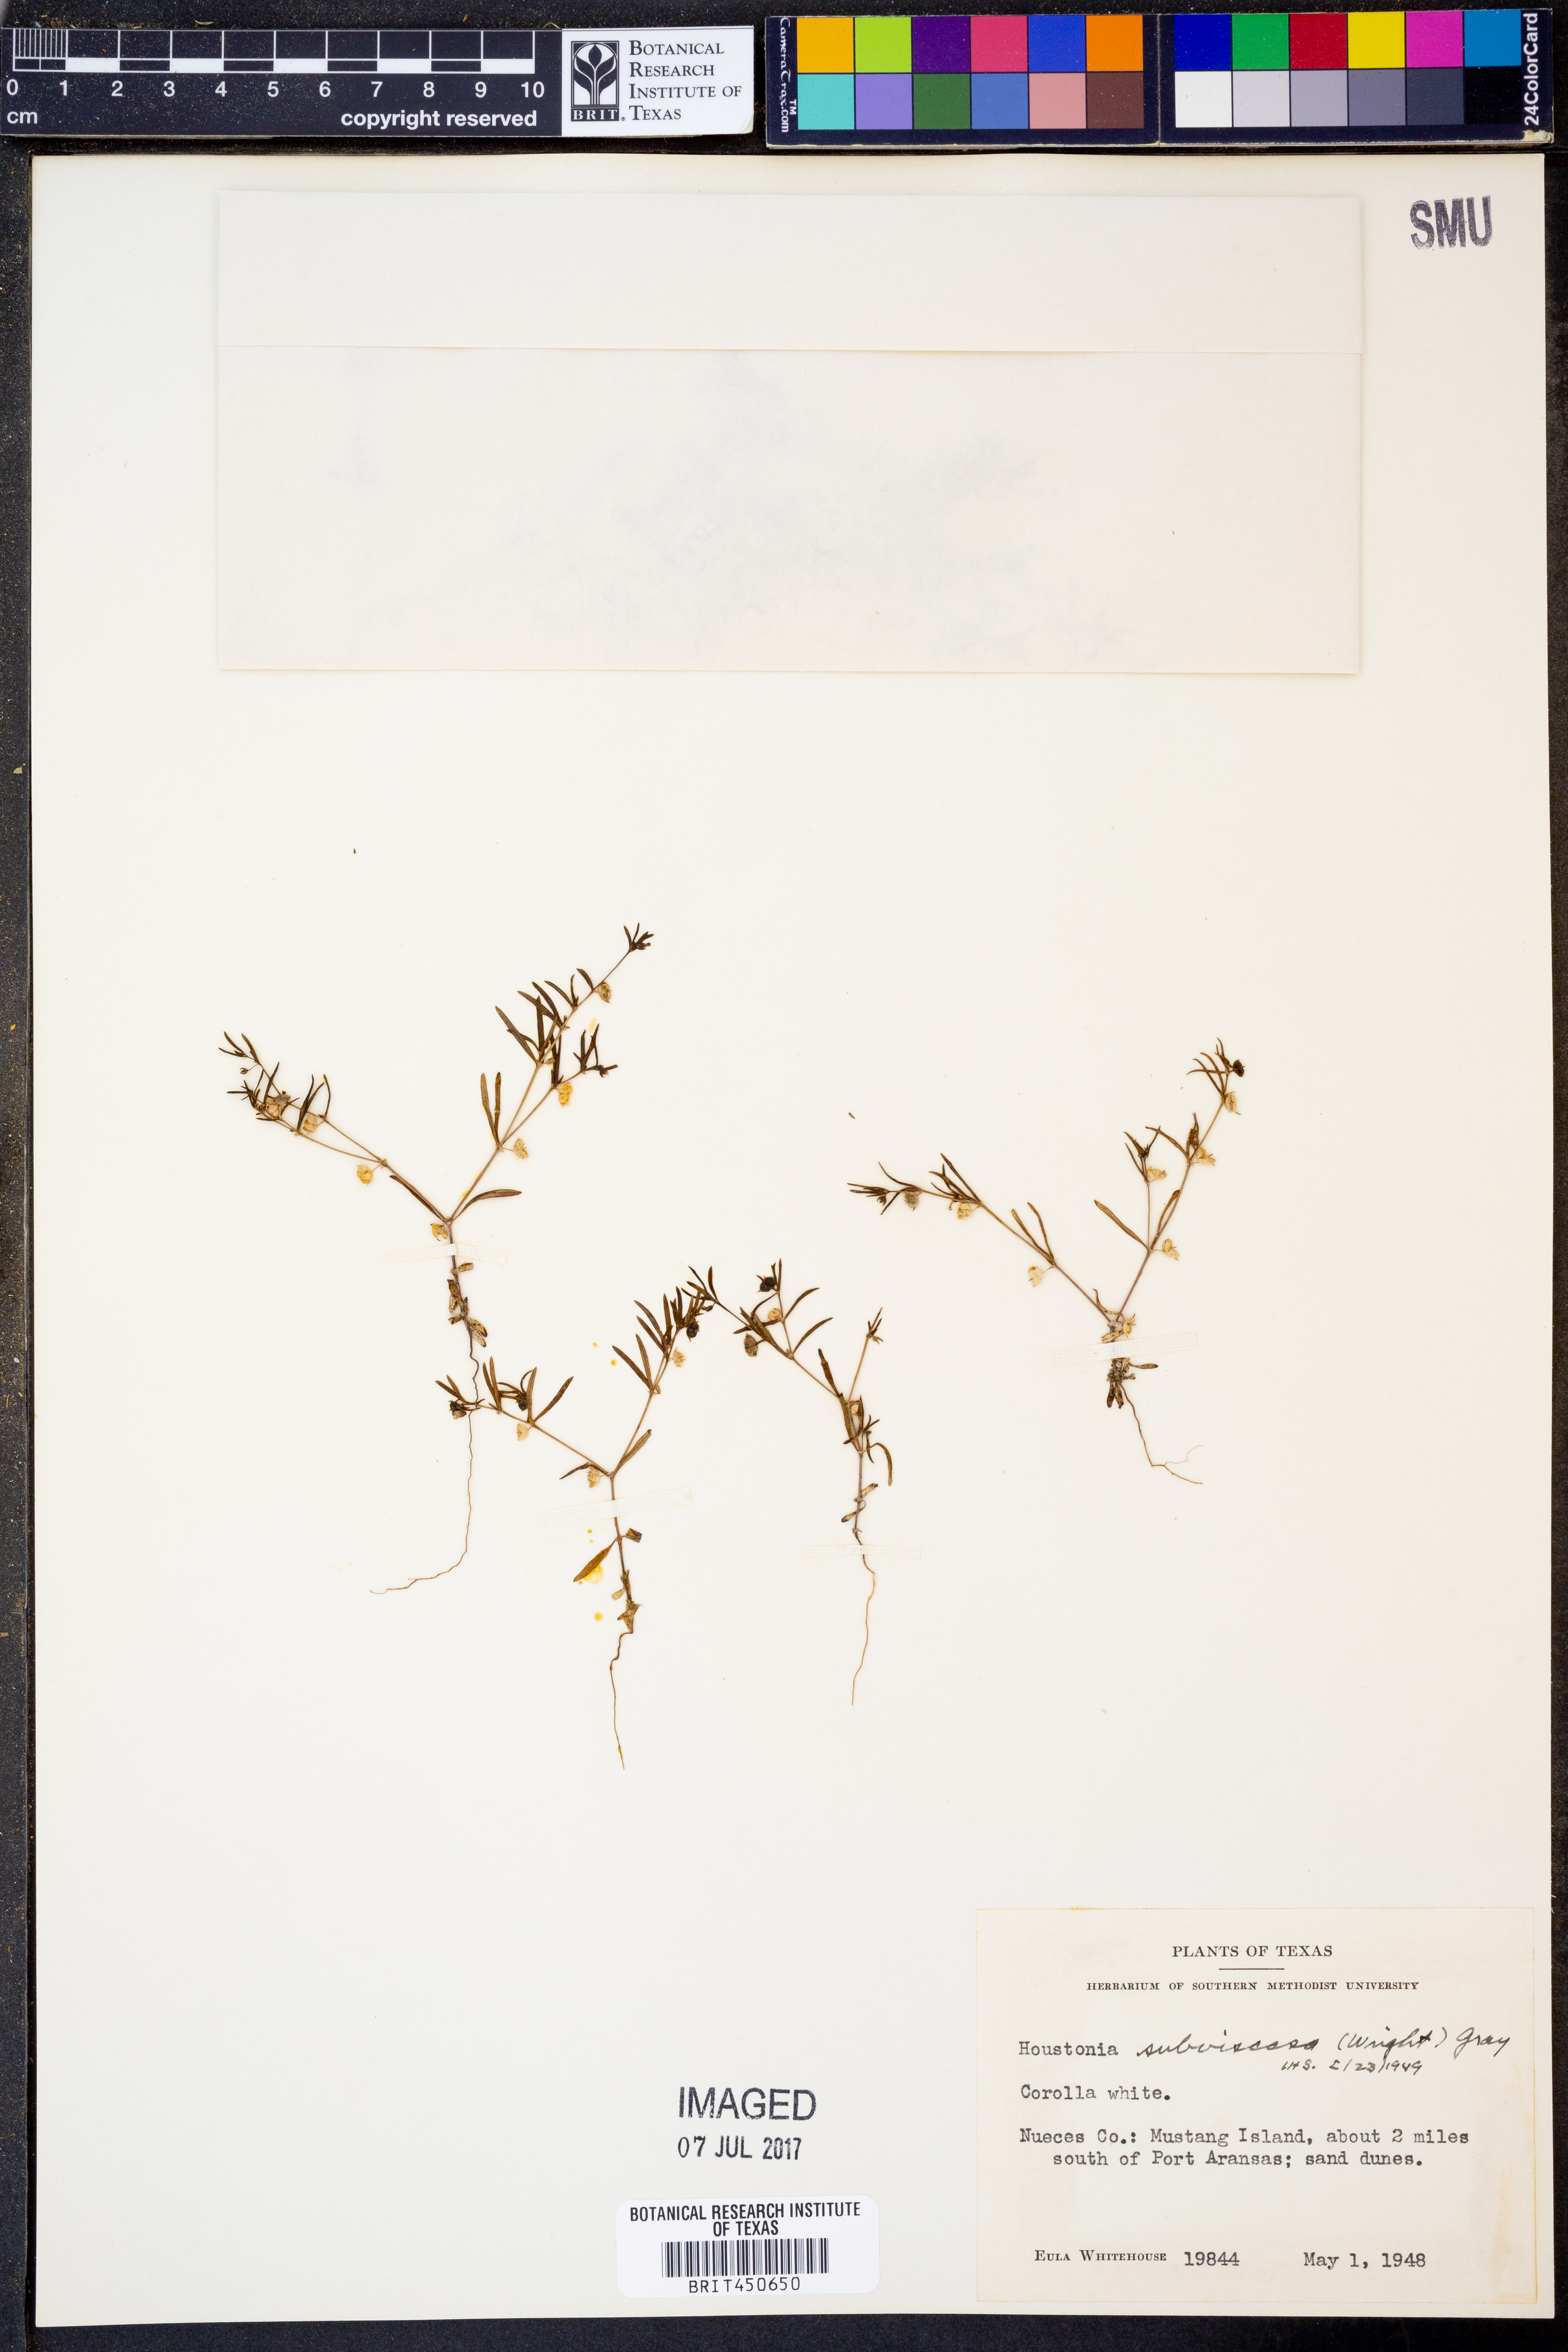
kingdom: Plantae
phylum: Tracheophyta
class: Magnoliopsida
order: Gentianales
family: Rubiaceae
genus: Houstonia
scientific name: Houstonia subviscosa
